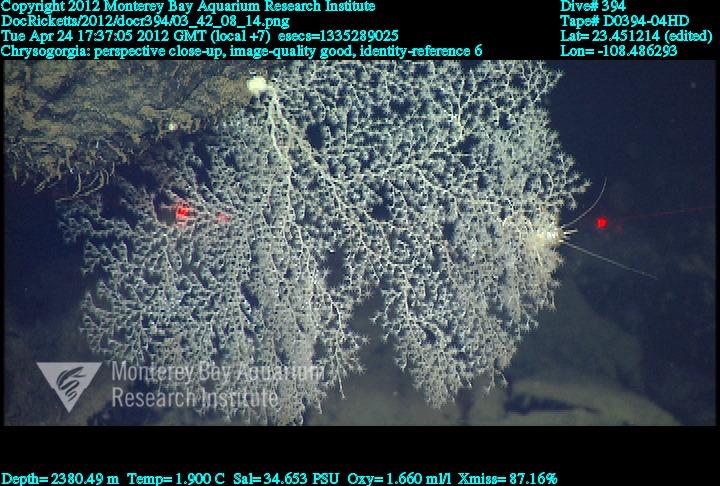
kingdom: Animalia
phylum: Cnidaria
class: Anthozoa
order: Scleralcyonacea
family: Chrysogorgiidae
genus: Chrysogorgia
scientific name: Chrysogorgia
